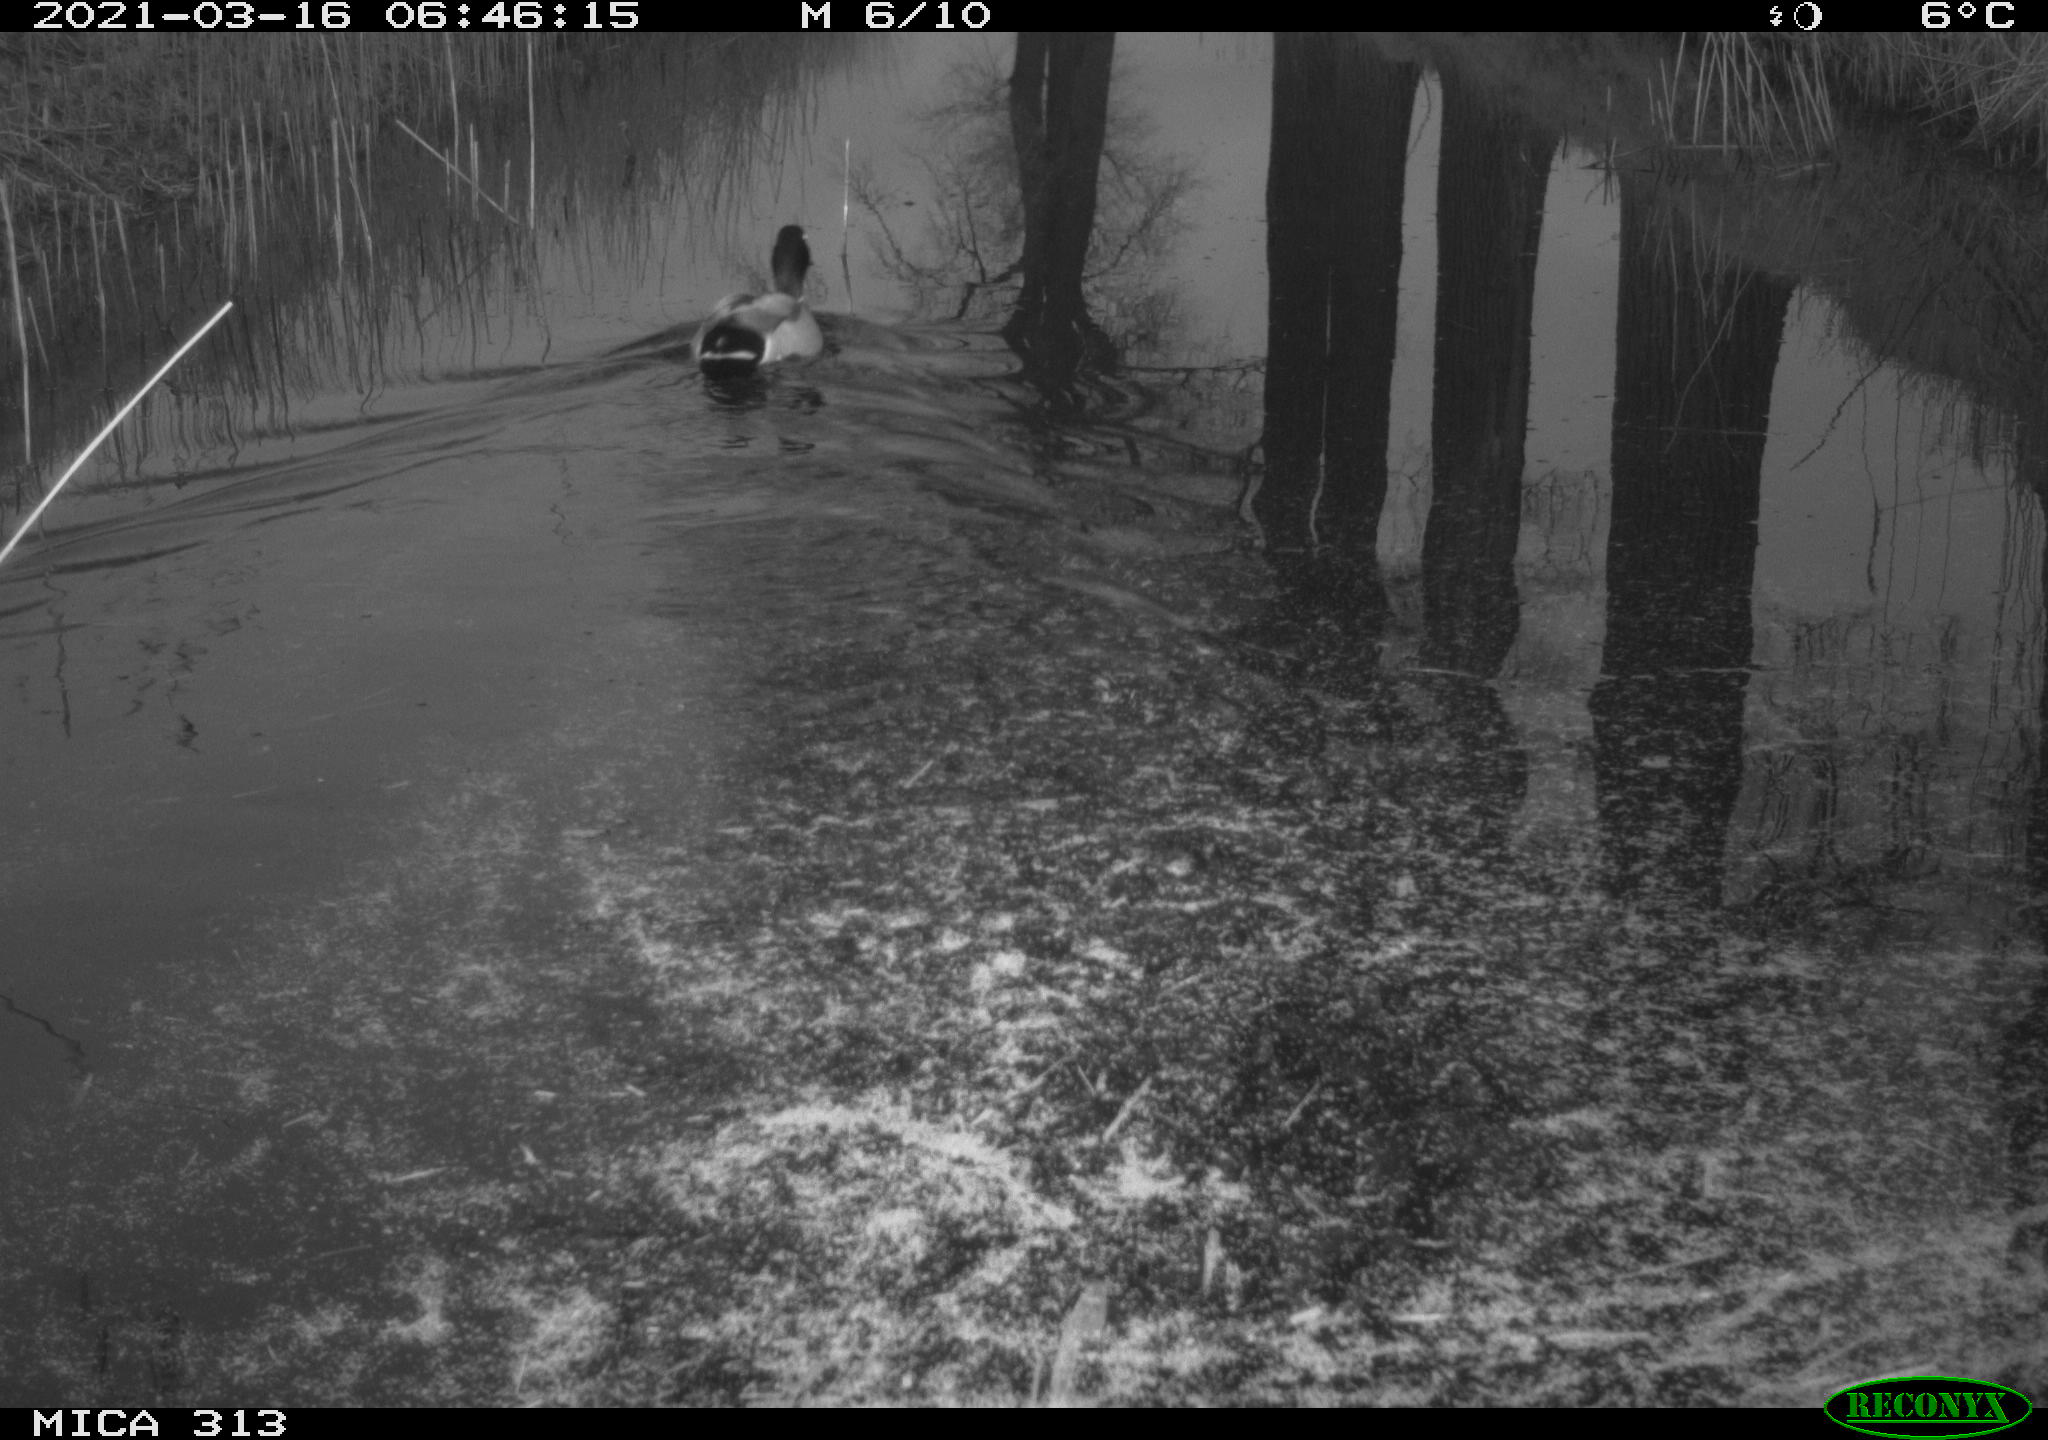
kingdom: Animalia
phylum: Chordata
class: Aves
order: Anseriformes
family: Anatidae
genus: Anas
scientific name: Anas platyrhynchos
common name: Mallard
